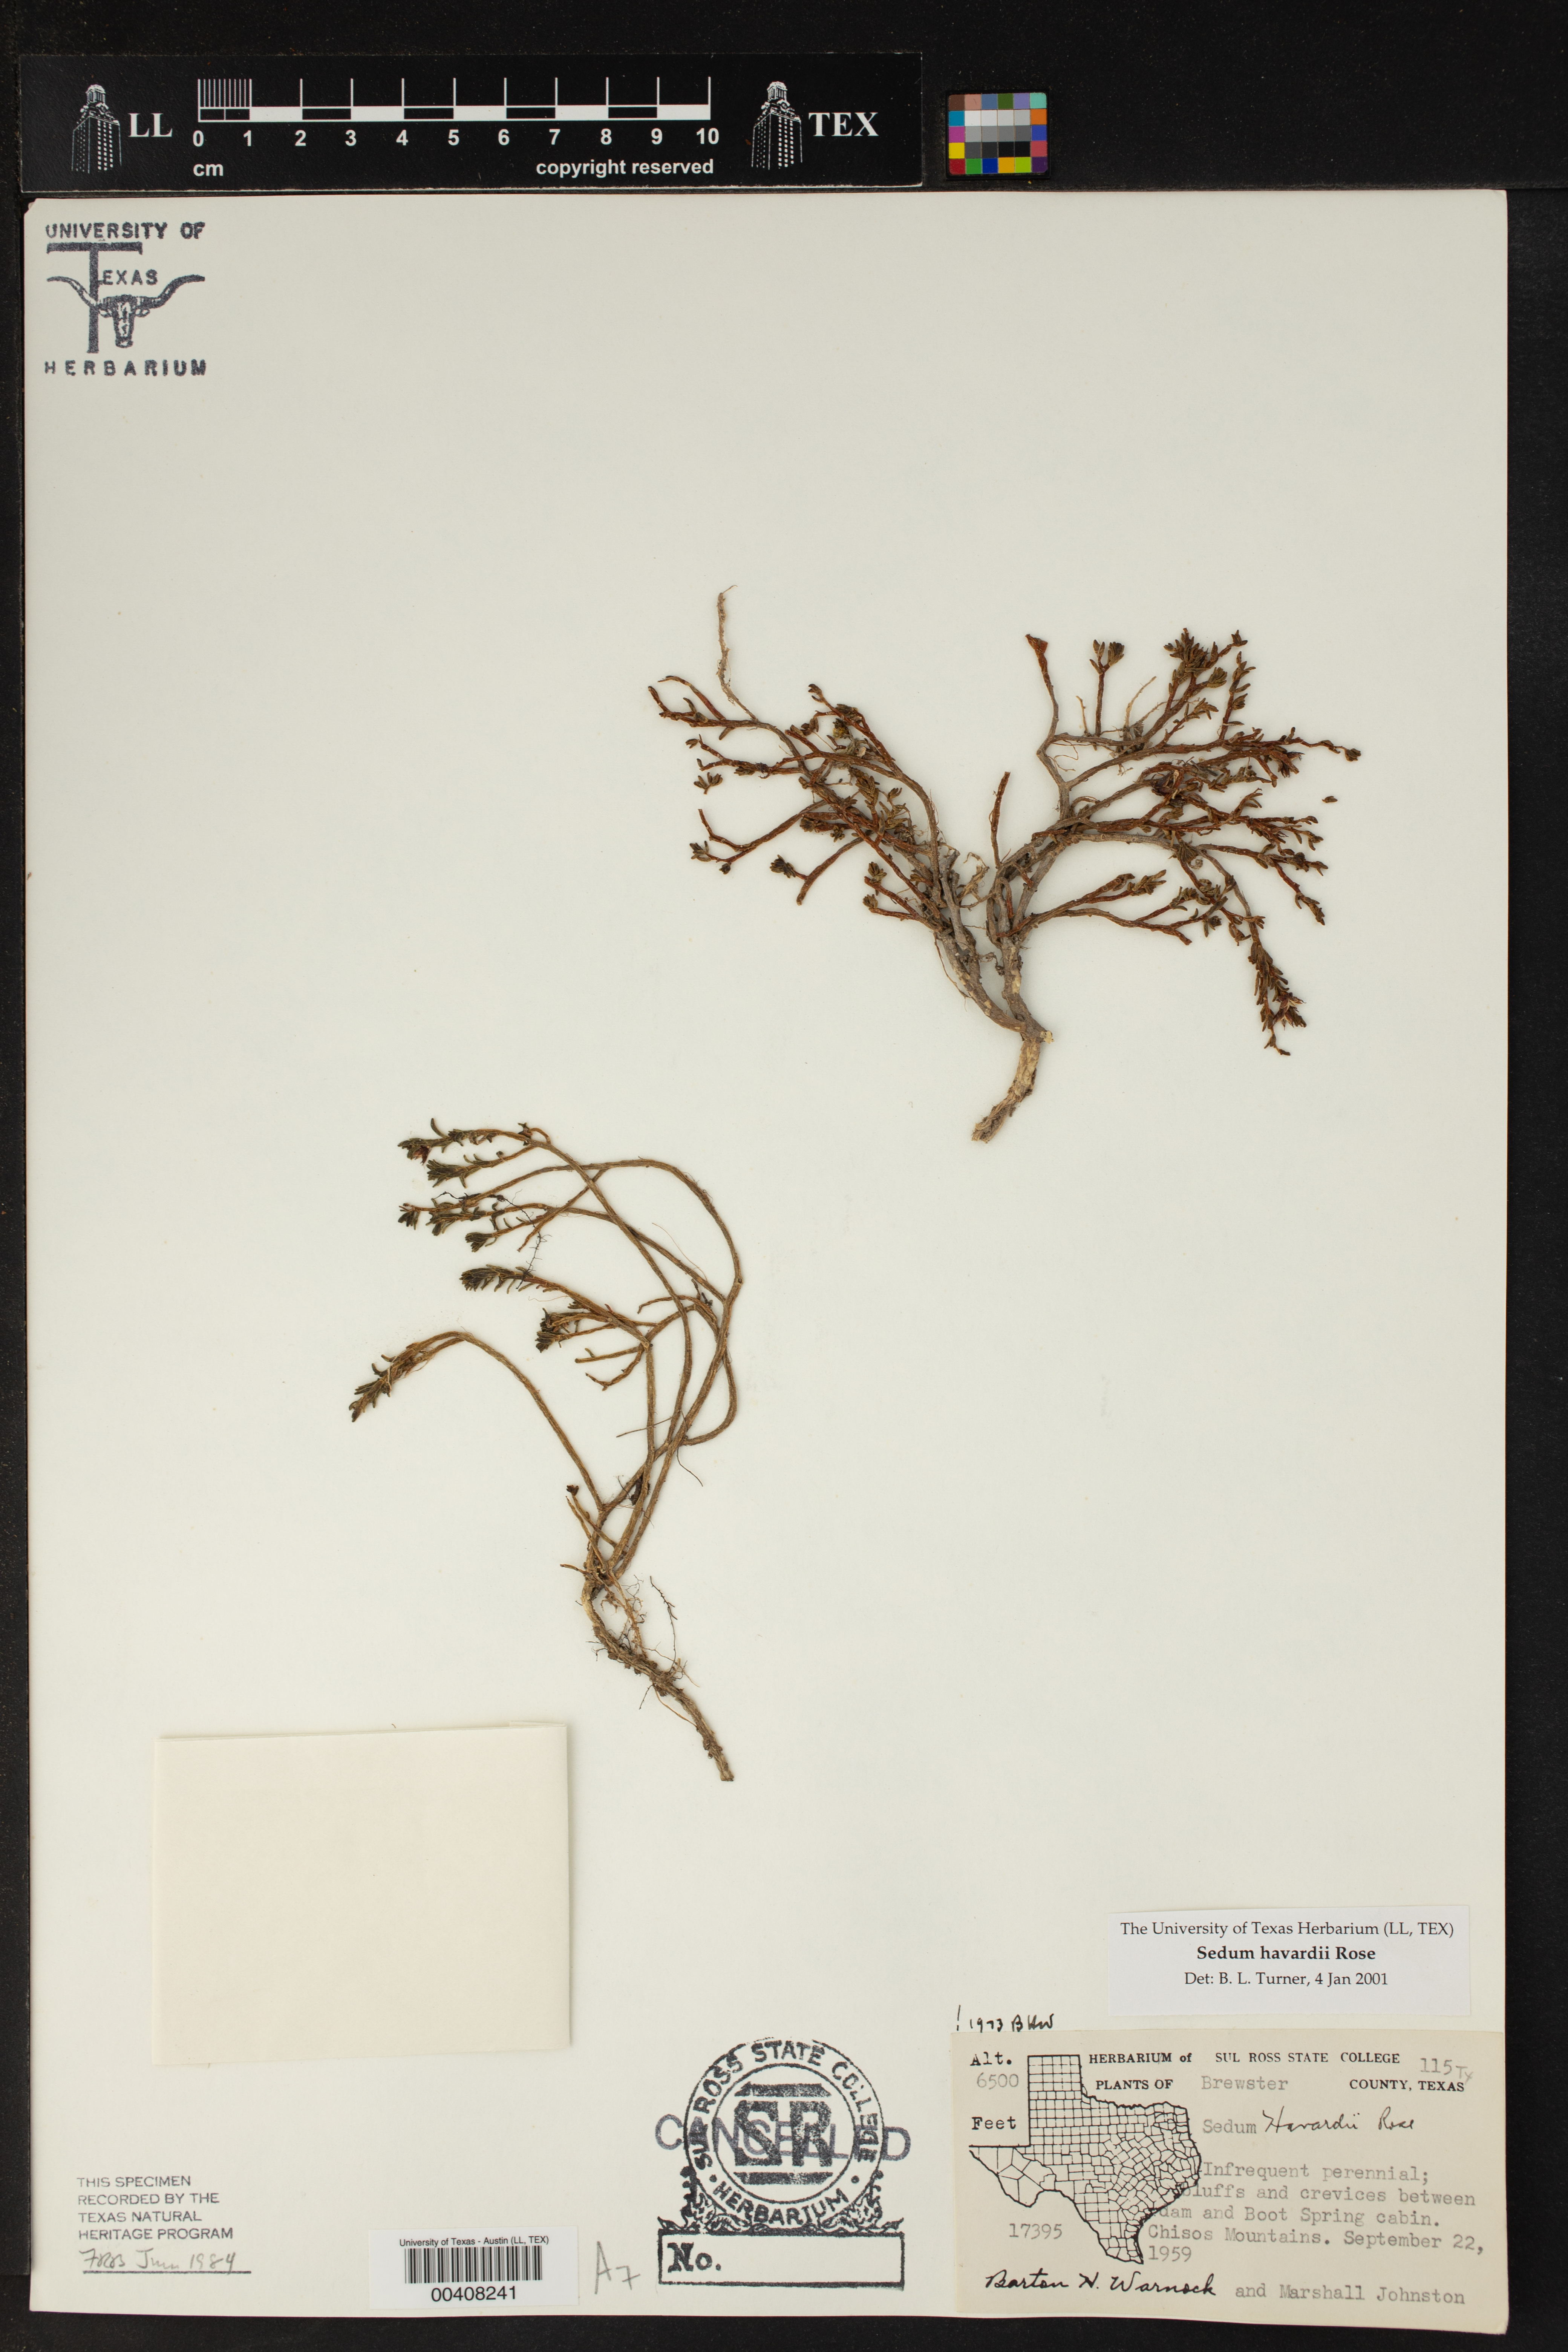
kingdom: Plantae
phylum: Tracheophyta
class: Magnoliopsida
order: Saxifragales
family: Crassulaceae
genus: Sedum
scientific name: Sedum havardii
